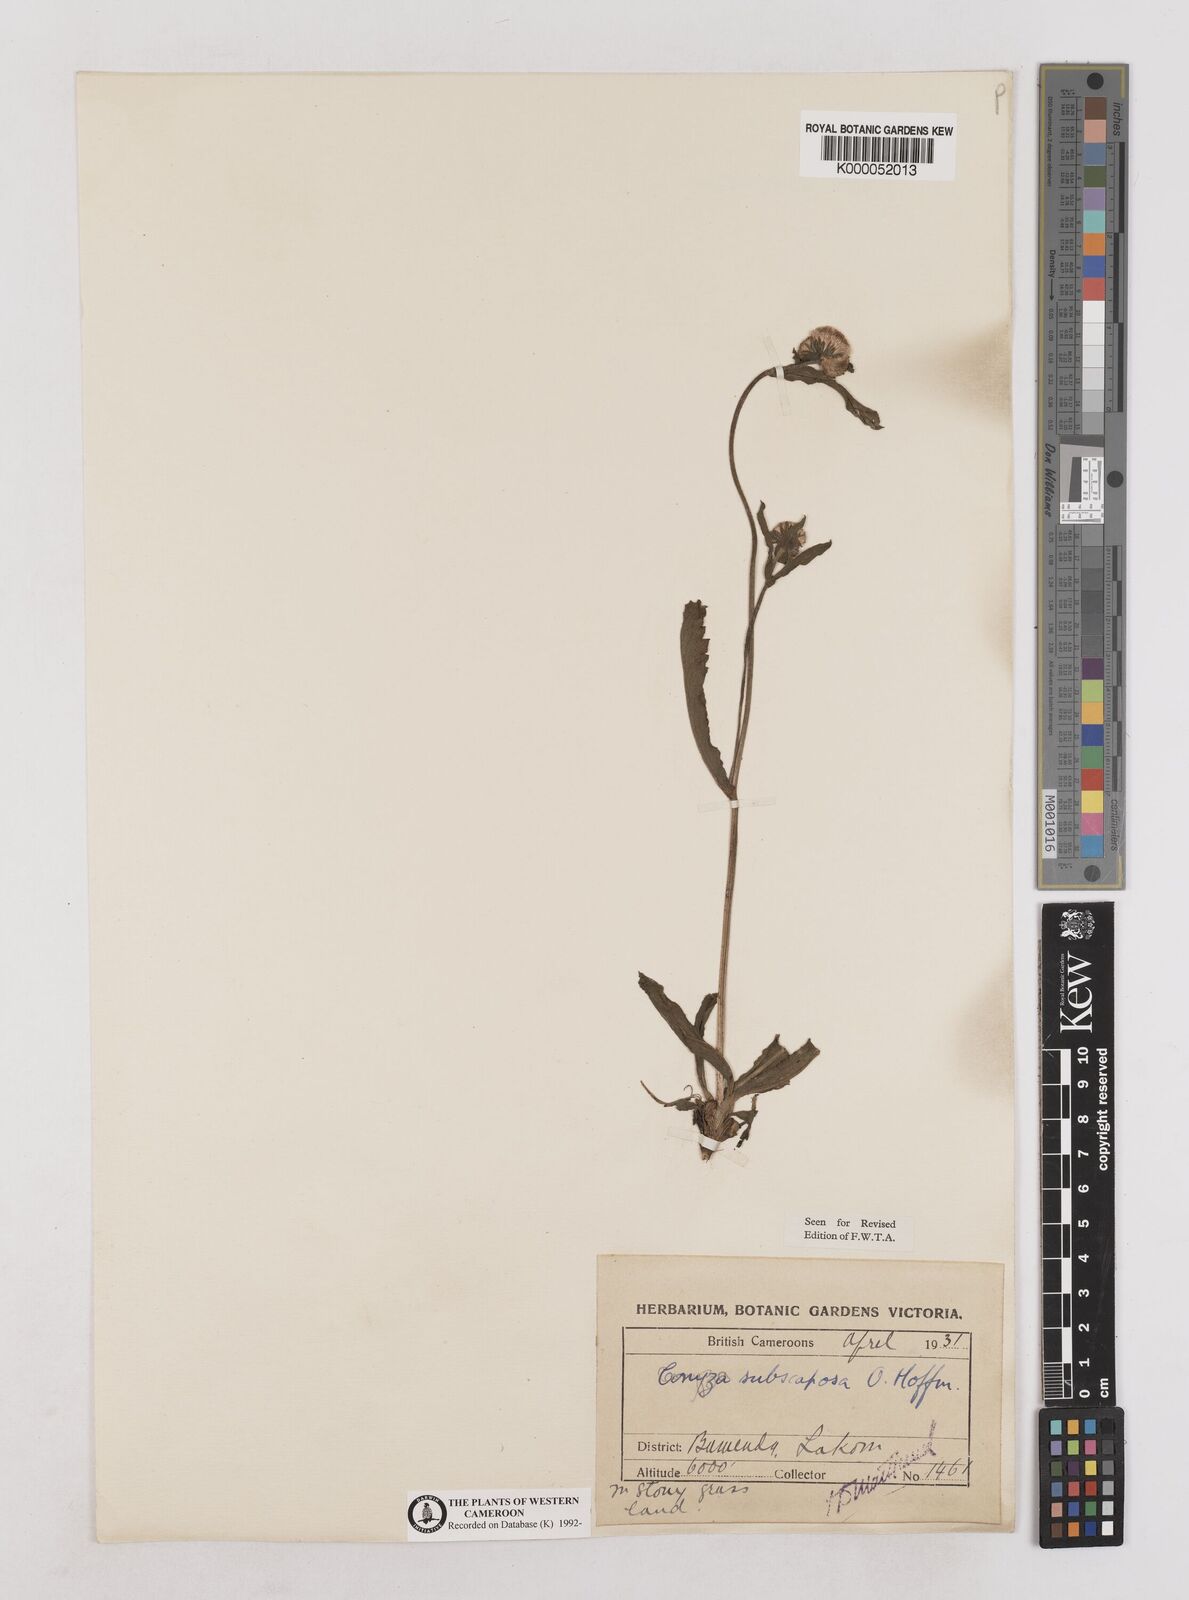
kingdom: Plantae
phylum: Tracheophyta
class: Magnoliopsida
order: Asterales
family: Asteraceae
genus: Eschenbachia
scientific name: Eschenbachia subscaposa
